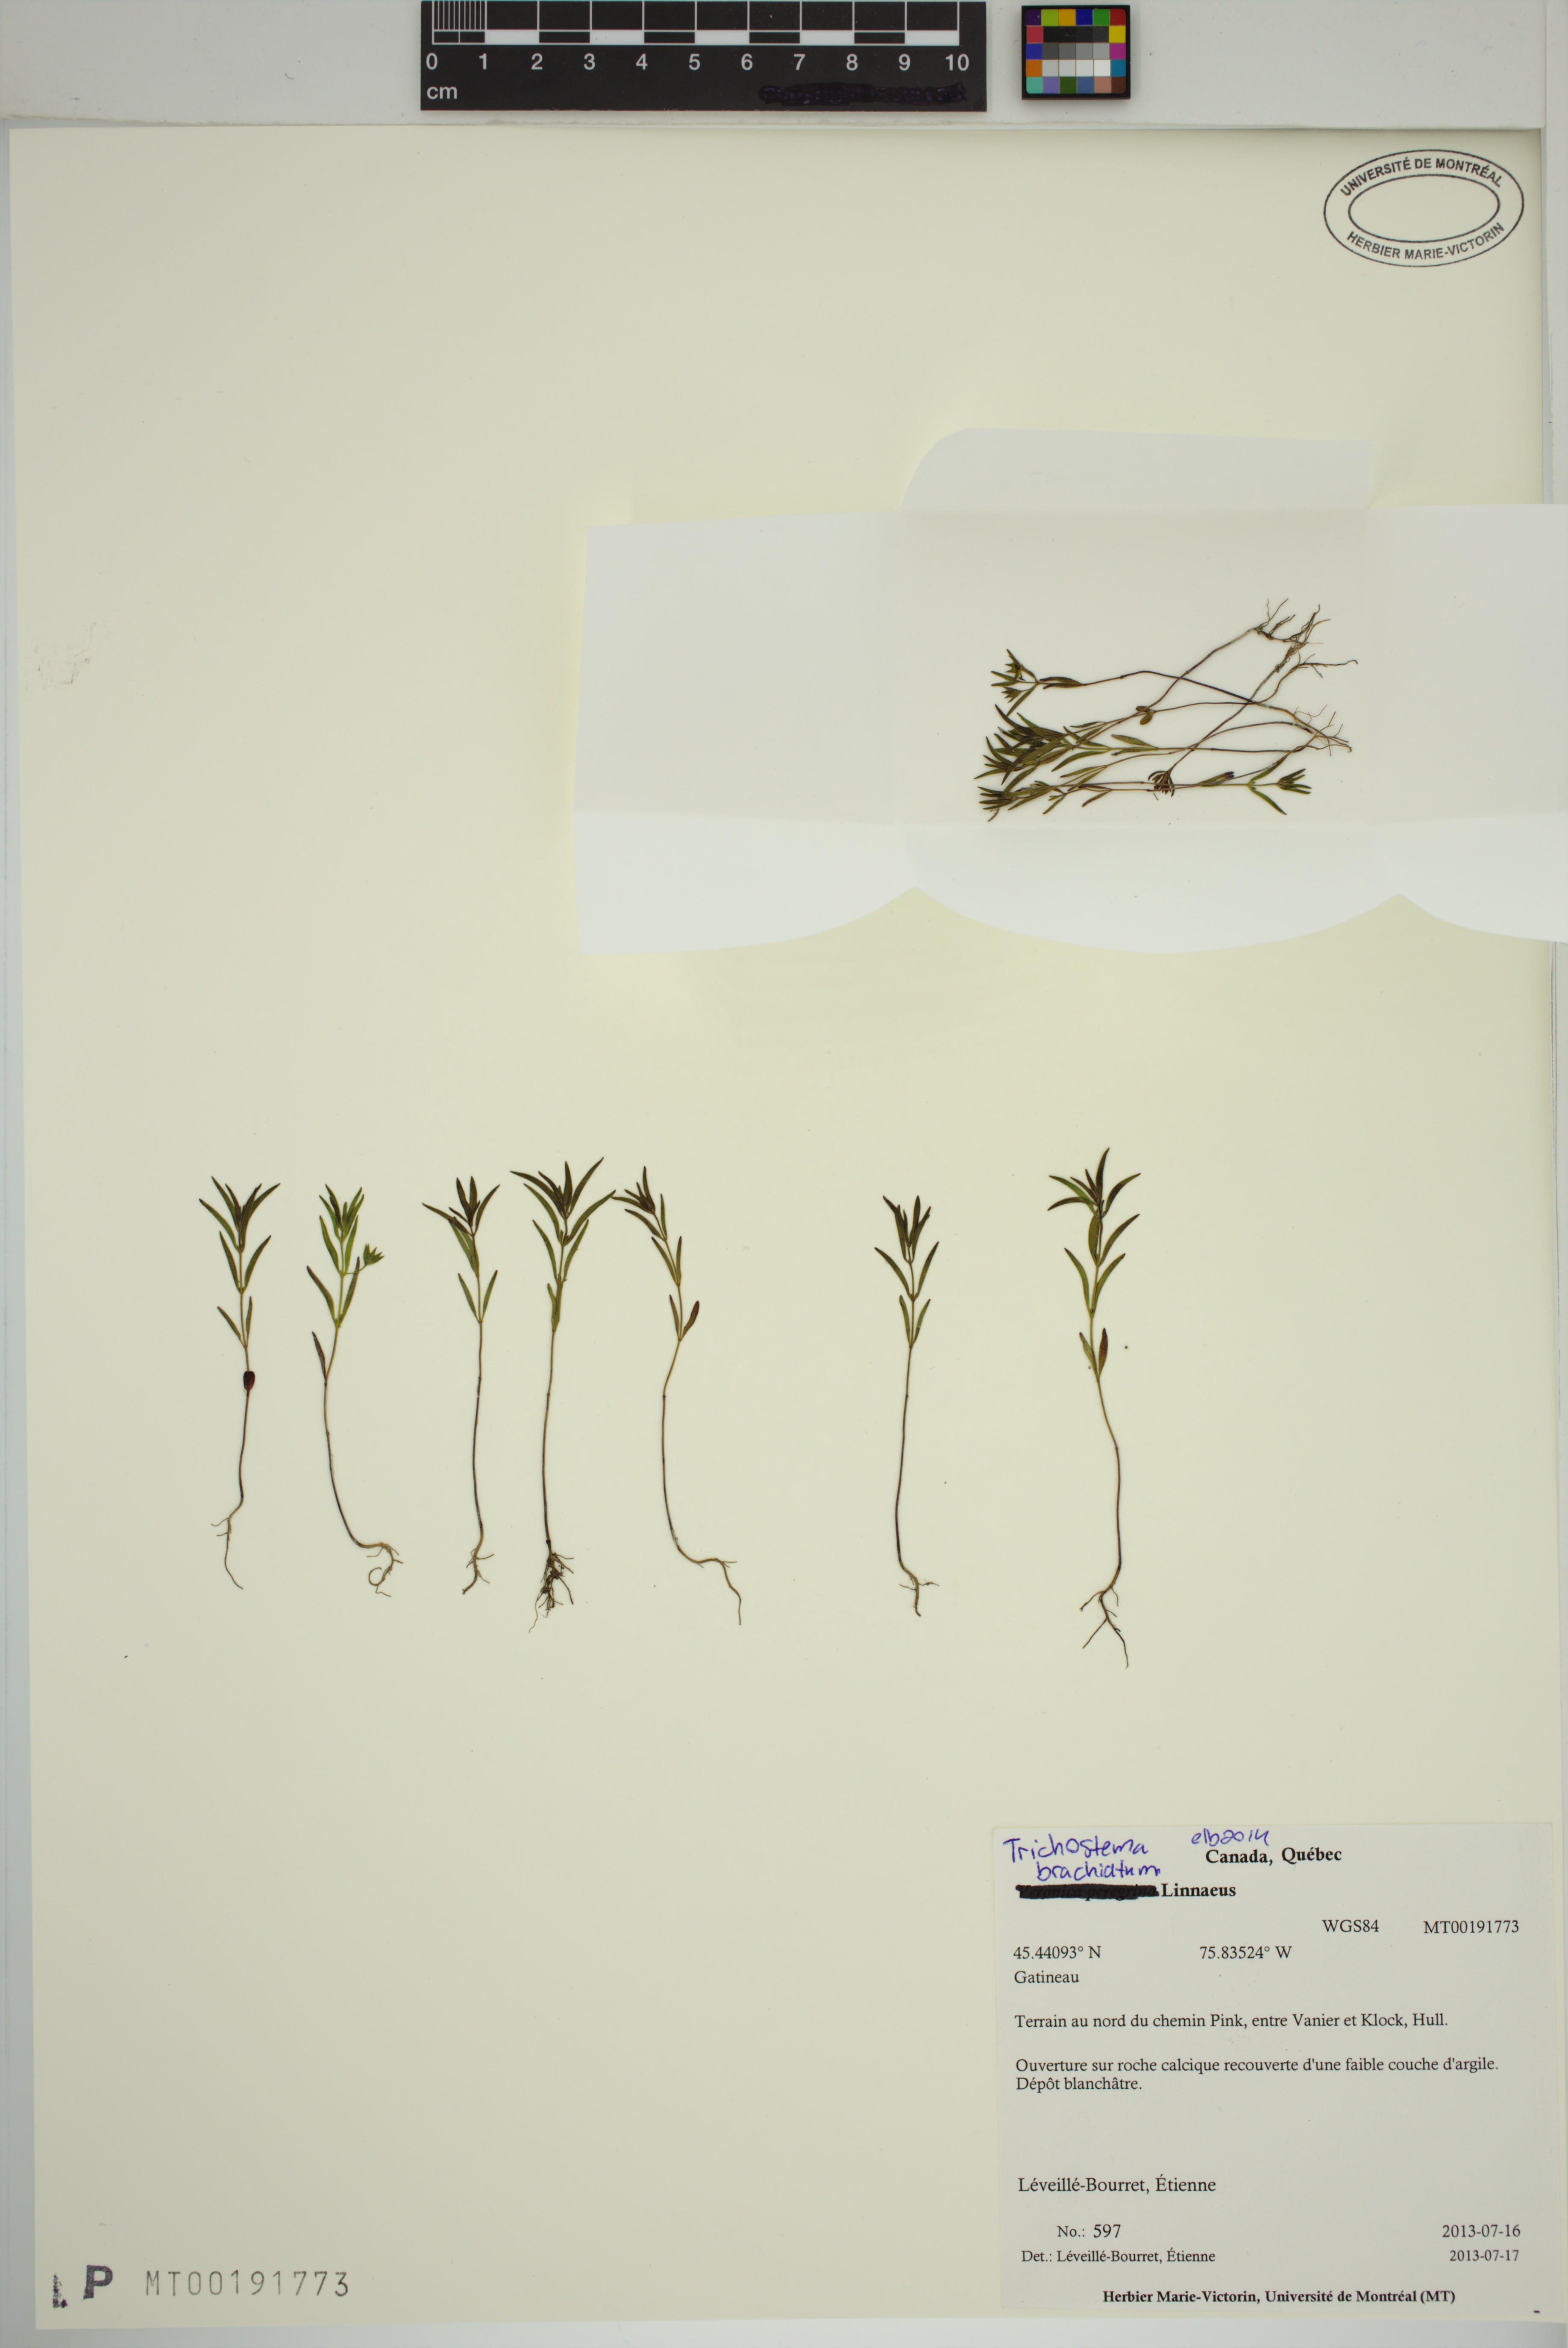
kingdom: Plantae
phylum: Tracheophyta
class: Magnoliopsida
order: Lamiales
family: Lamiaceae
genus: Trichostema
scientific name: Trichostema brachiatum
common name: False pennyroyal
